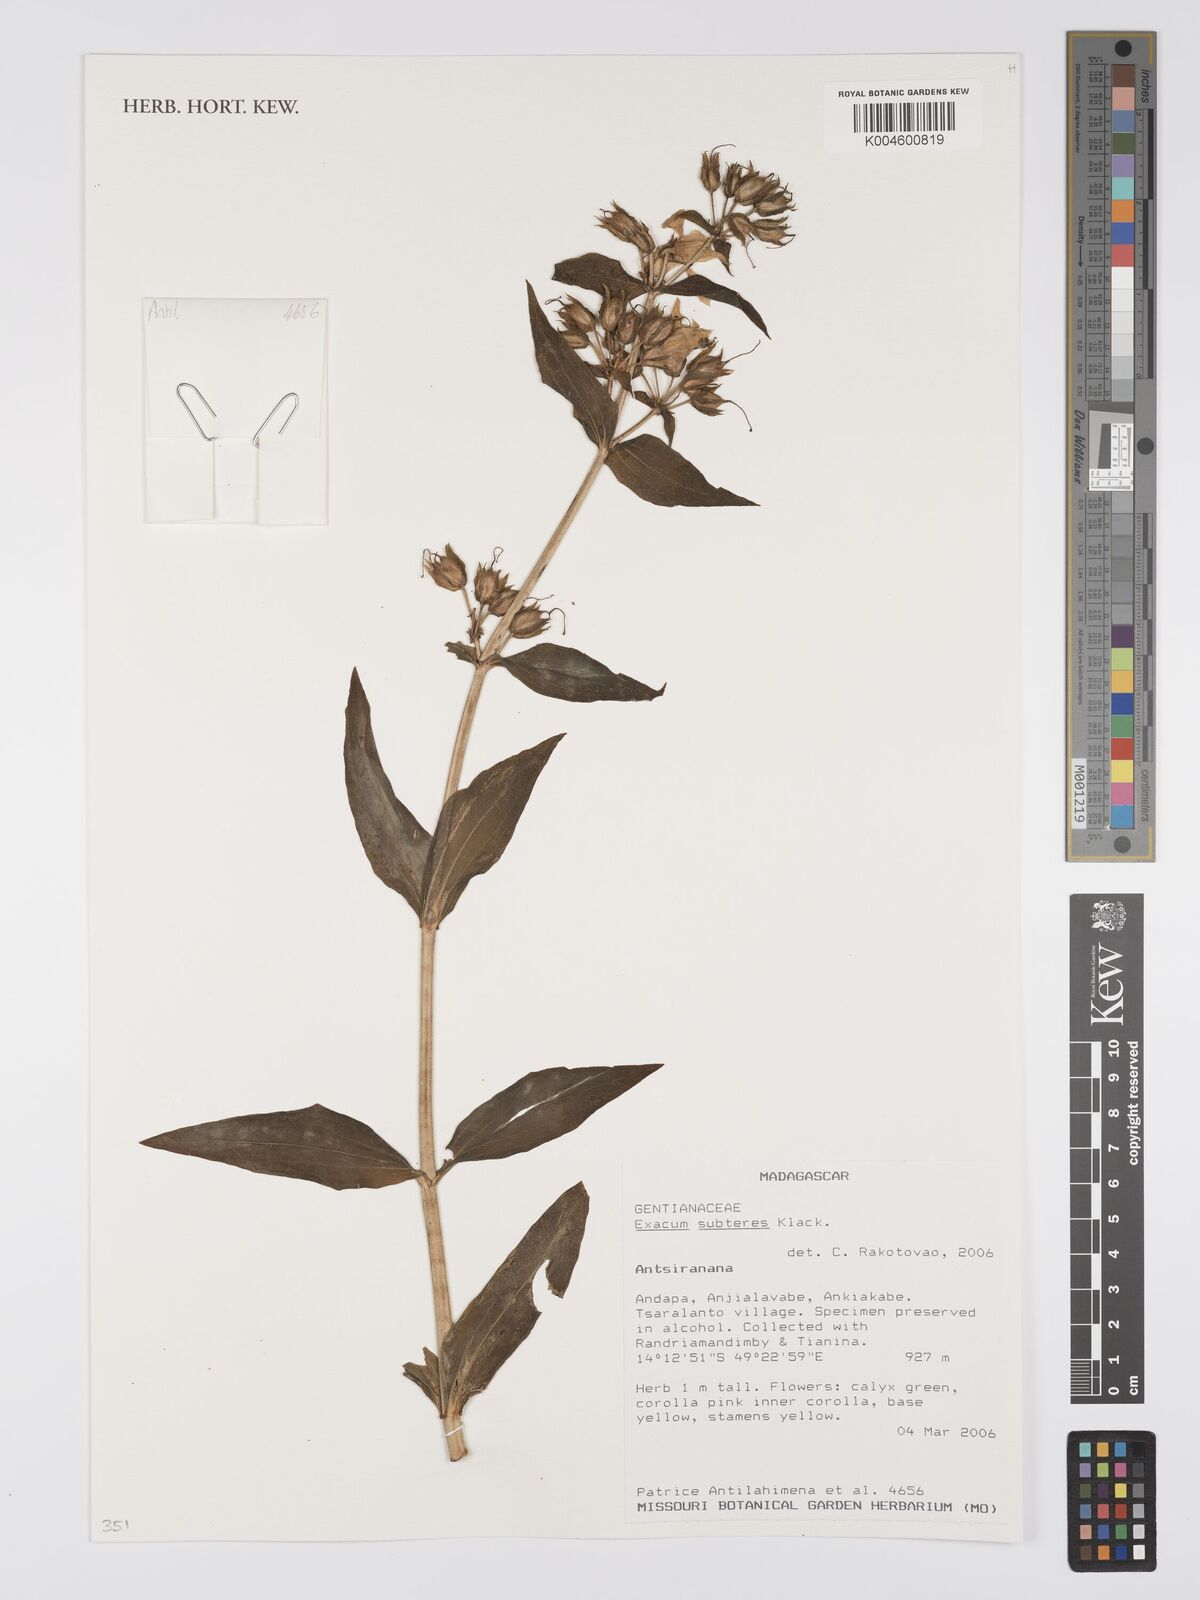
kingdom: Plantae
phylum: Tracheophyta
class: Magnoliopsida
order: Gentianales
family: Gentianaceae
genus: Exacum
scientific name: Exacum subteres
